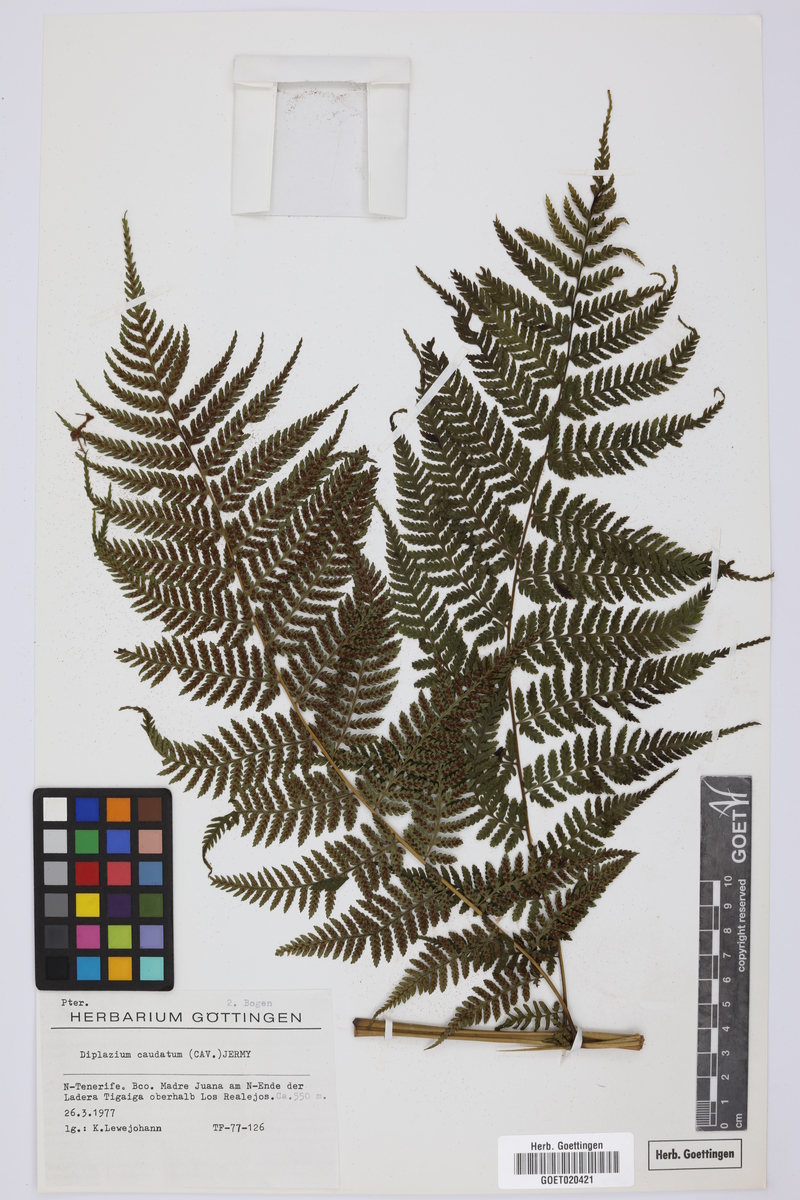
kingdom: Plantae
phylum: Tracheophyta
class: Polypodiopsida
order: Polypodiales
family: Athyriaceae
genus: Diplazium
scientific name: Diplazium caudatum
